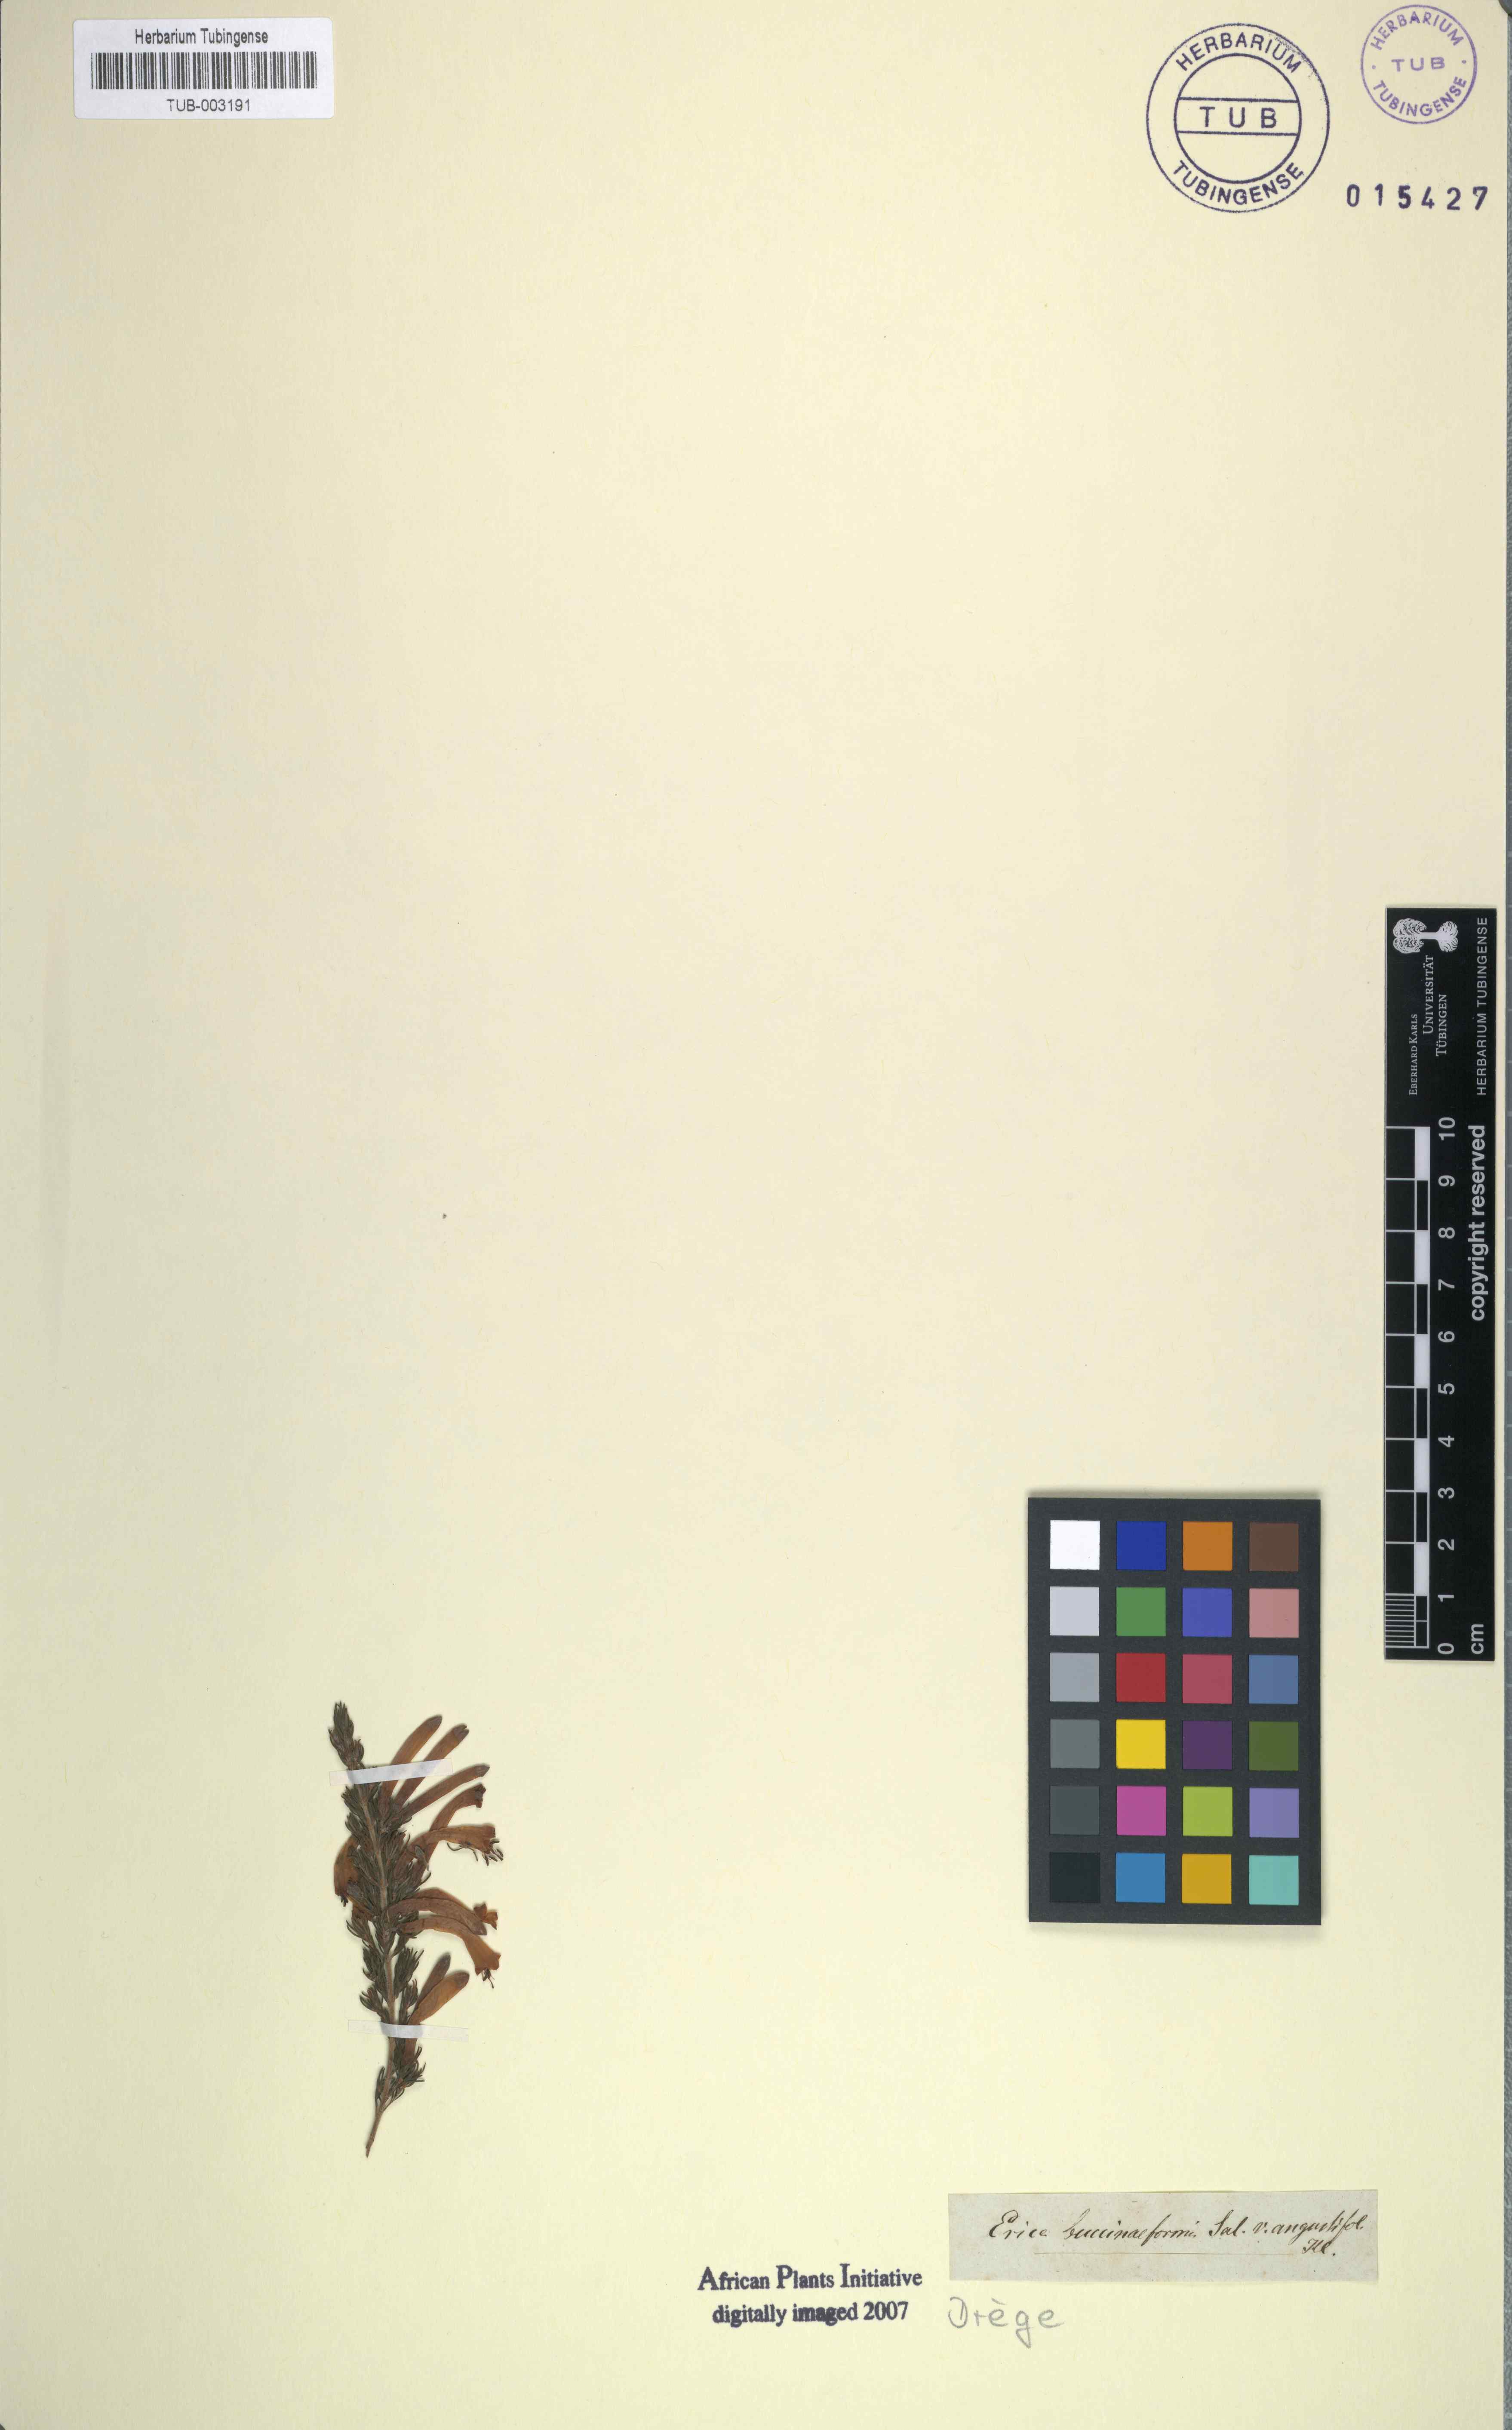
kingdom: Plantae
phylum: Tracheophyta
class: Magnoliopsida
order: Ericales
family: Ericaceae
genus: Erica
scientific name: Erica buccinaeformis
